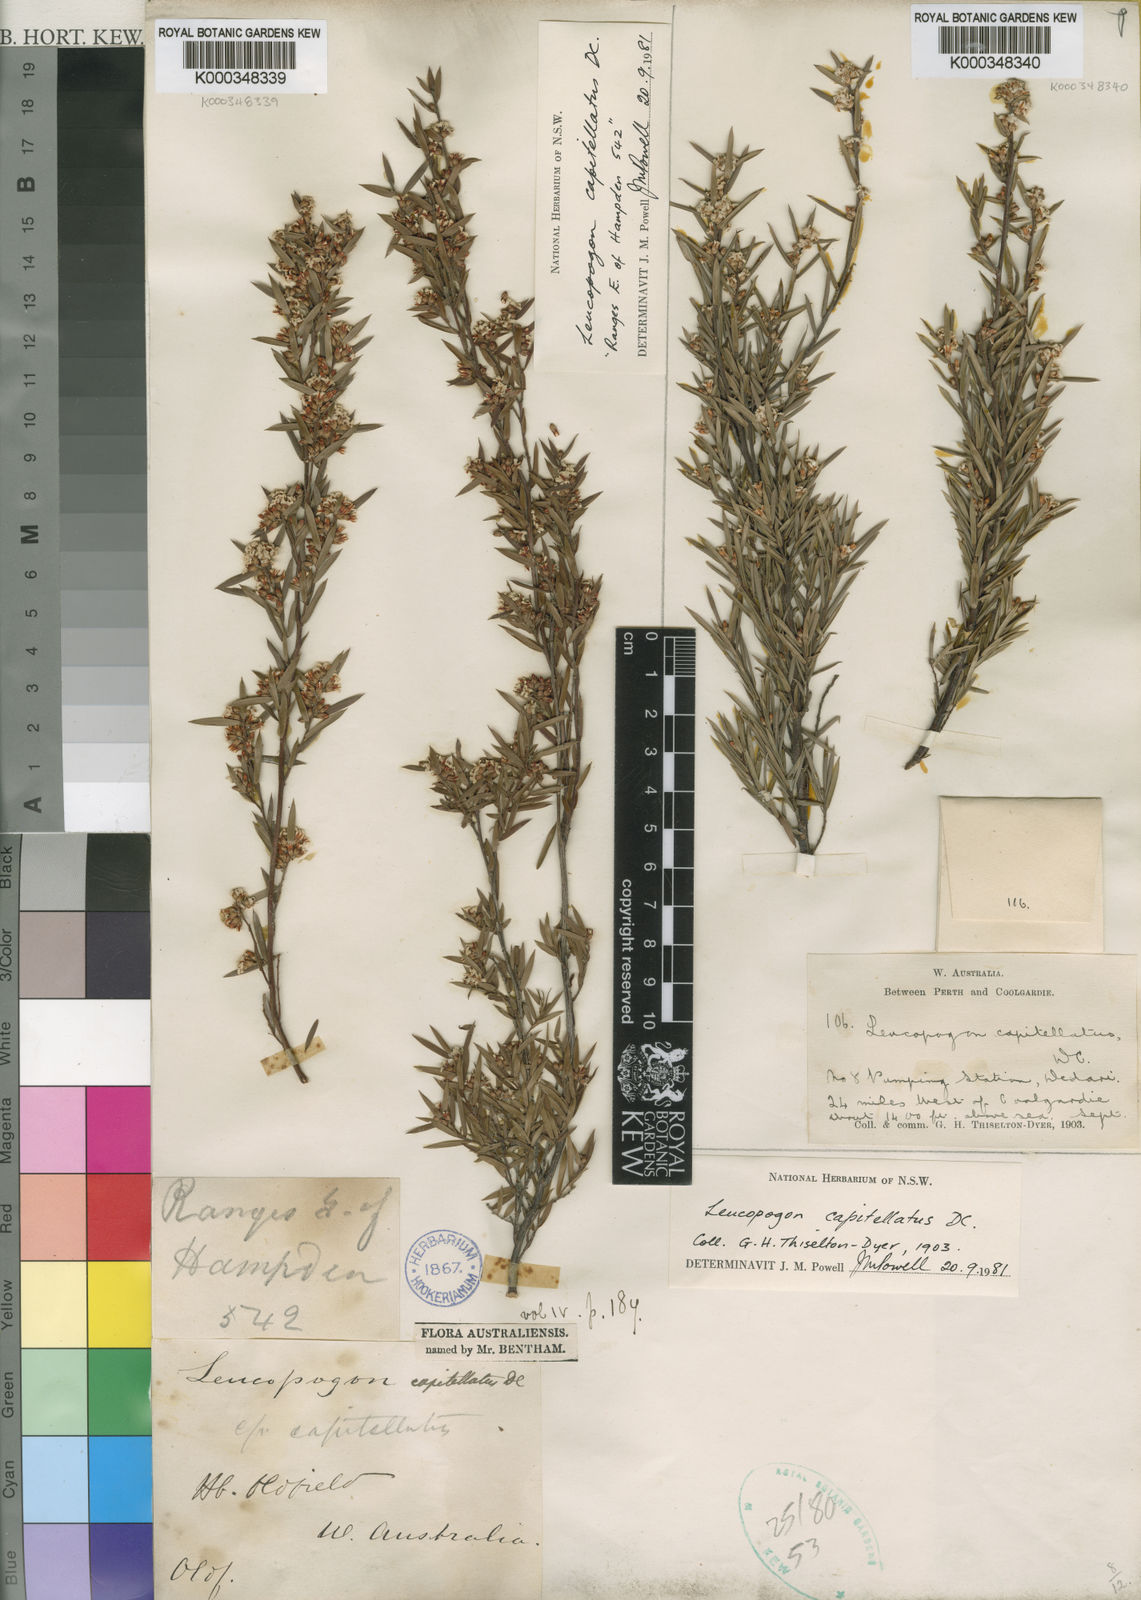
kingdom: Plantae
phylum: Tracheophyta
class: Magnoliopsida
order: Ericales
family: Ericaceae
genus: Leucopogon
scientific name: Leucopogon capitellatus
